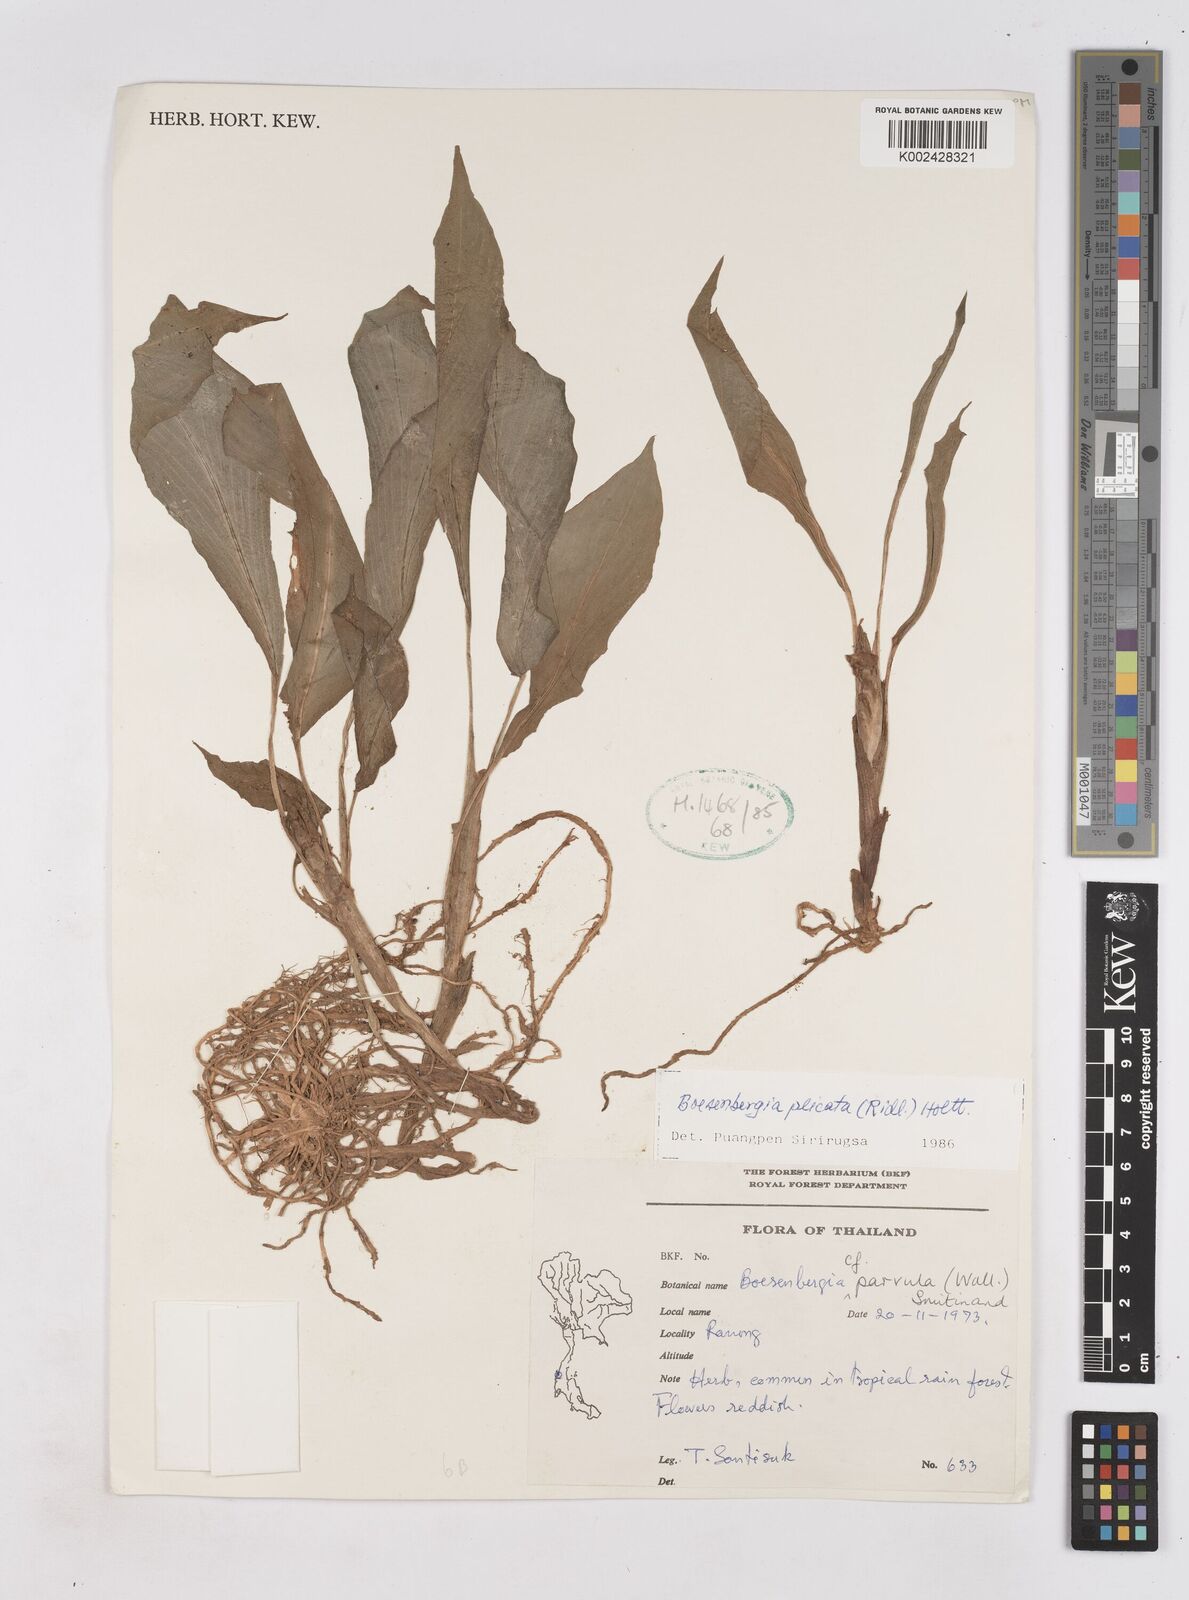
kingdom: Plantae
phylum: Tracheophyta
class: Liliopsida
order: Zingiberales
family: Zingiberaceae
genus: Boesenbergia
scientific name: Boesenbergia plicata
